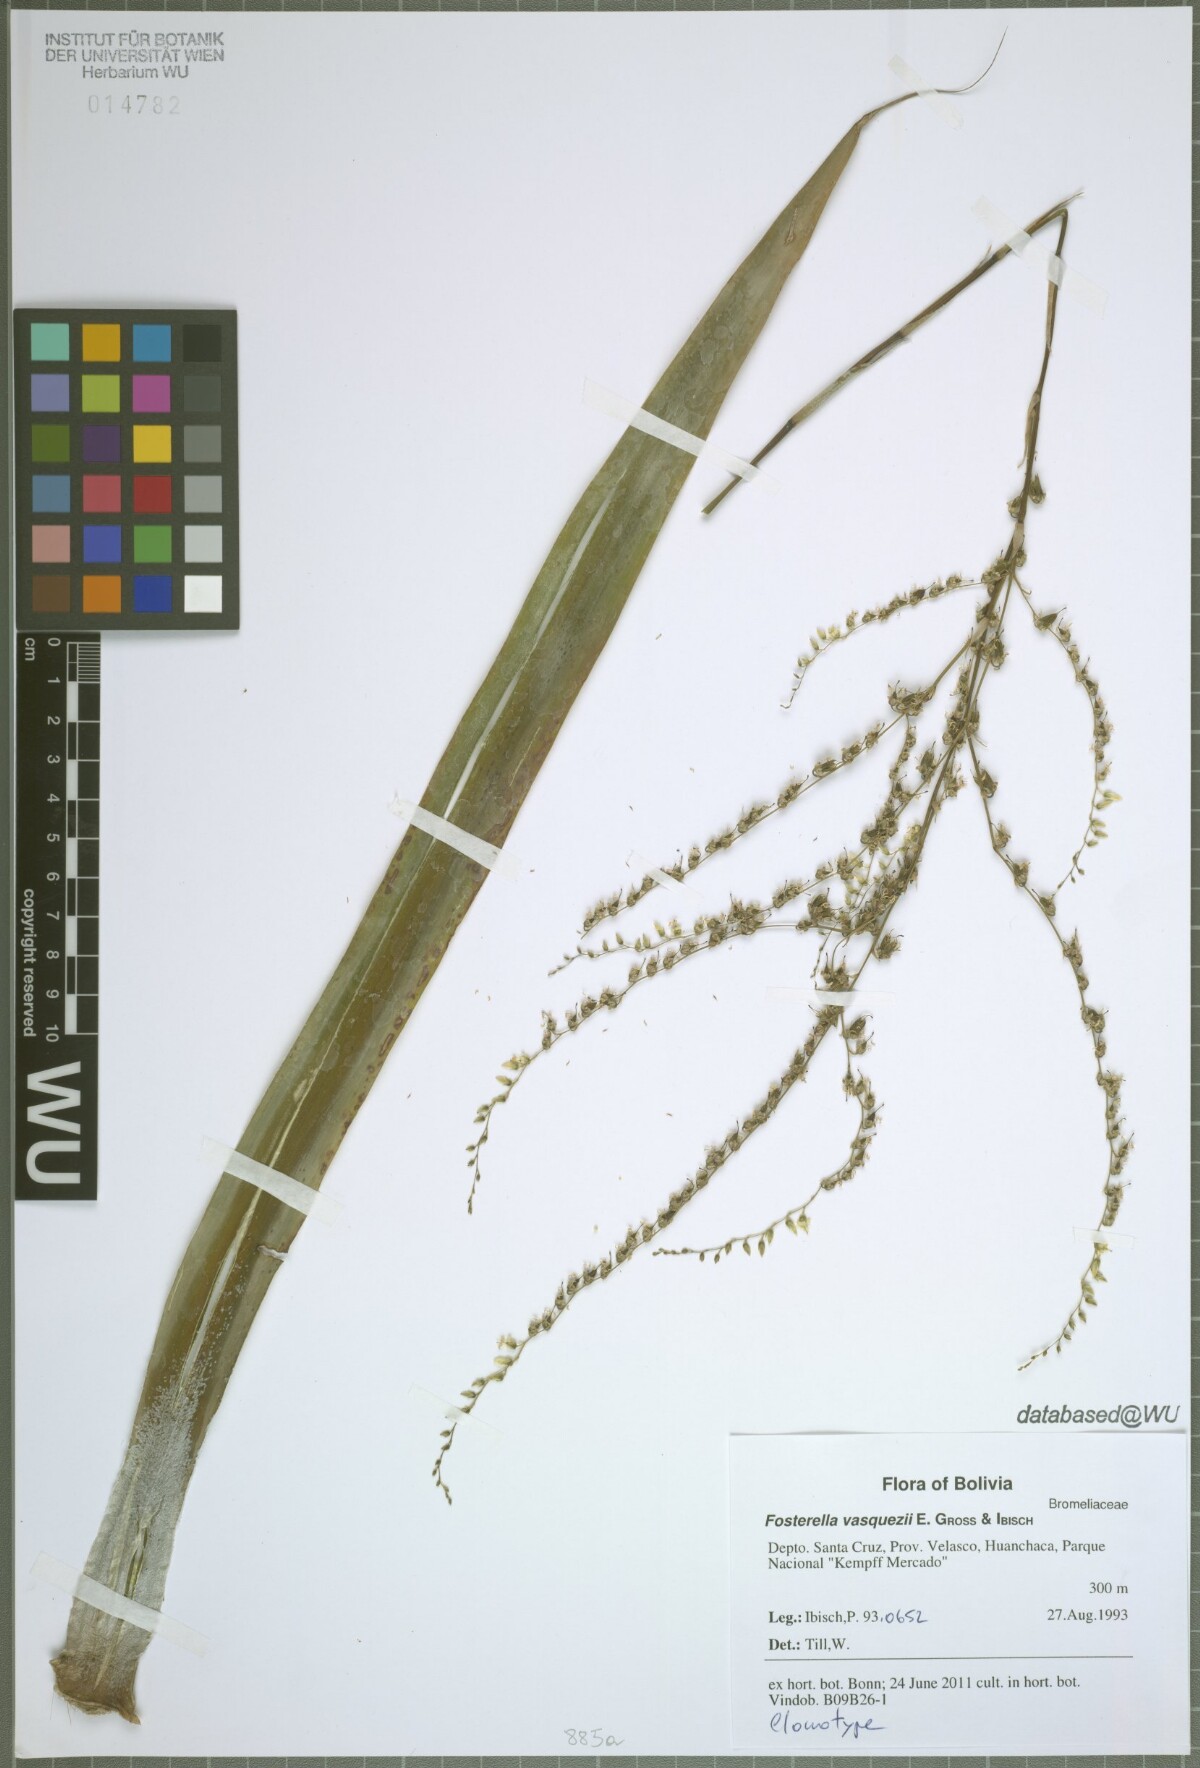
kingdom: Plantae
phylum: Tracheophyta
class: Liliopsida
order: Poales
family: Bromeliaceae
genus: Fosterella
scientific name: Fosterella vasquezii
